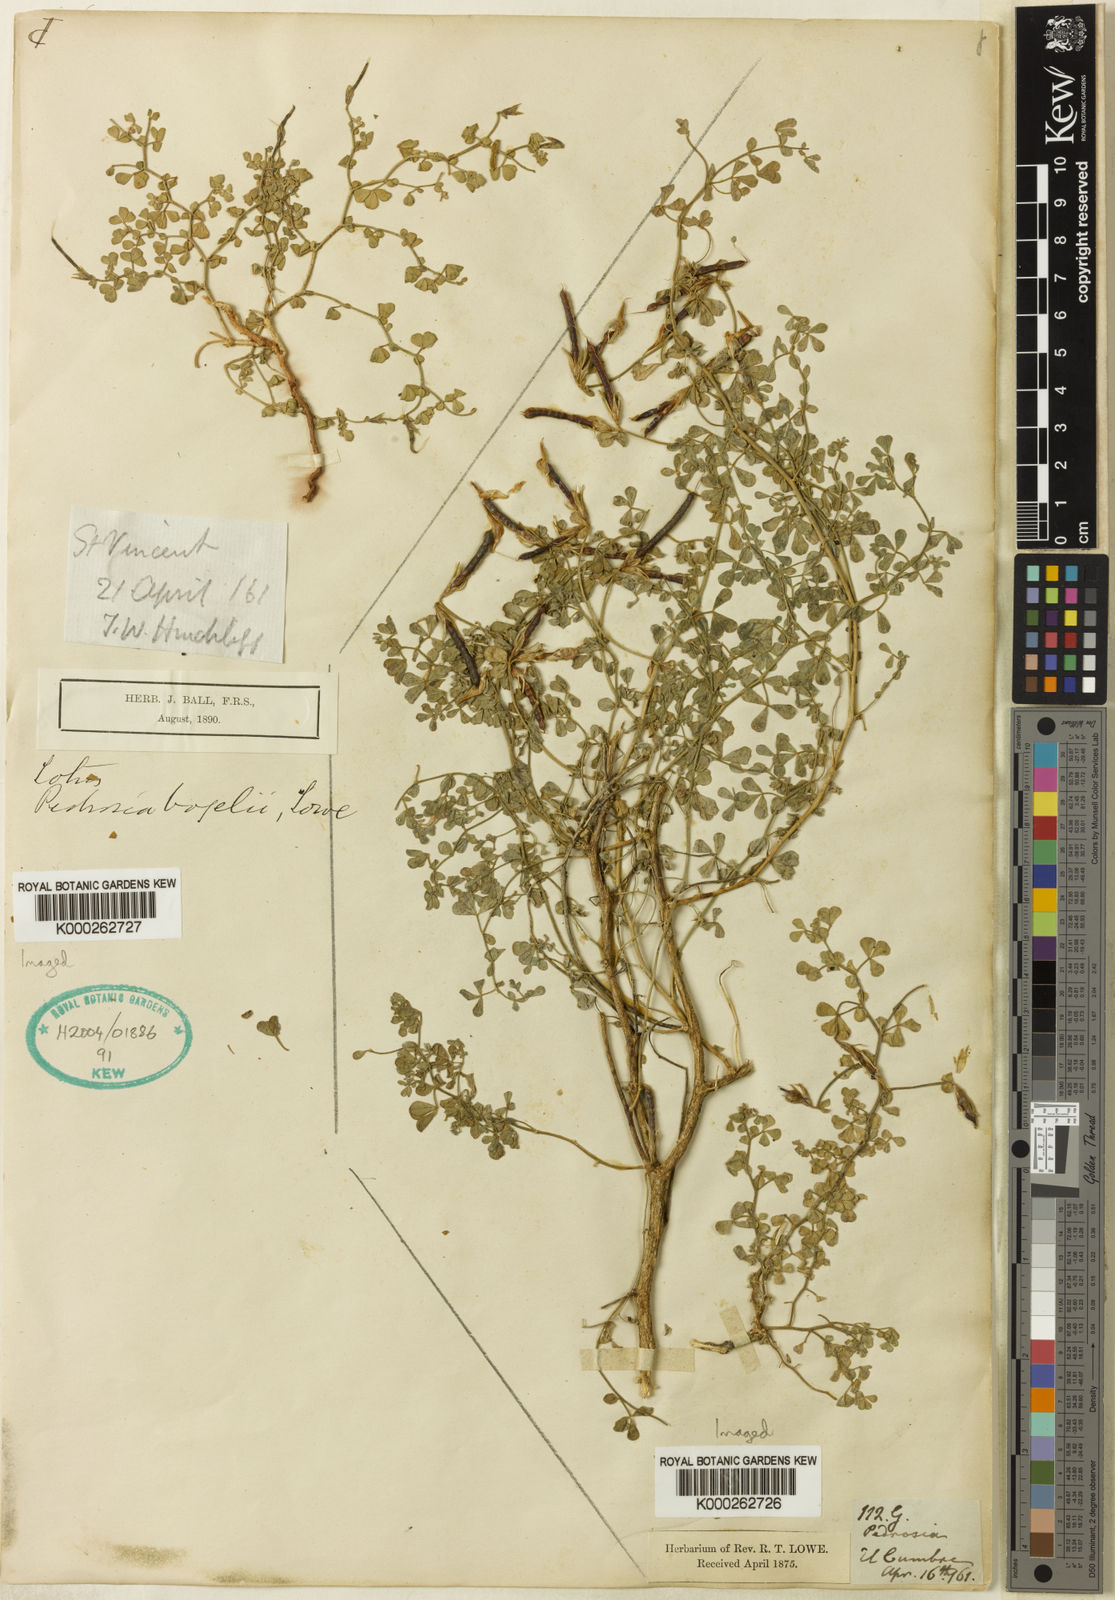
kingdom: Plantae
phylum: Tracheophyta
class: Magnoliopsida
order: Fabales
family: Fabaceae
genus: Lotus
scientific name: Lotus
